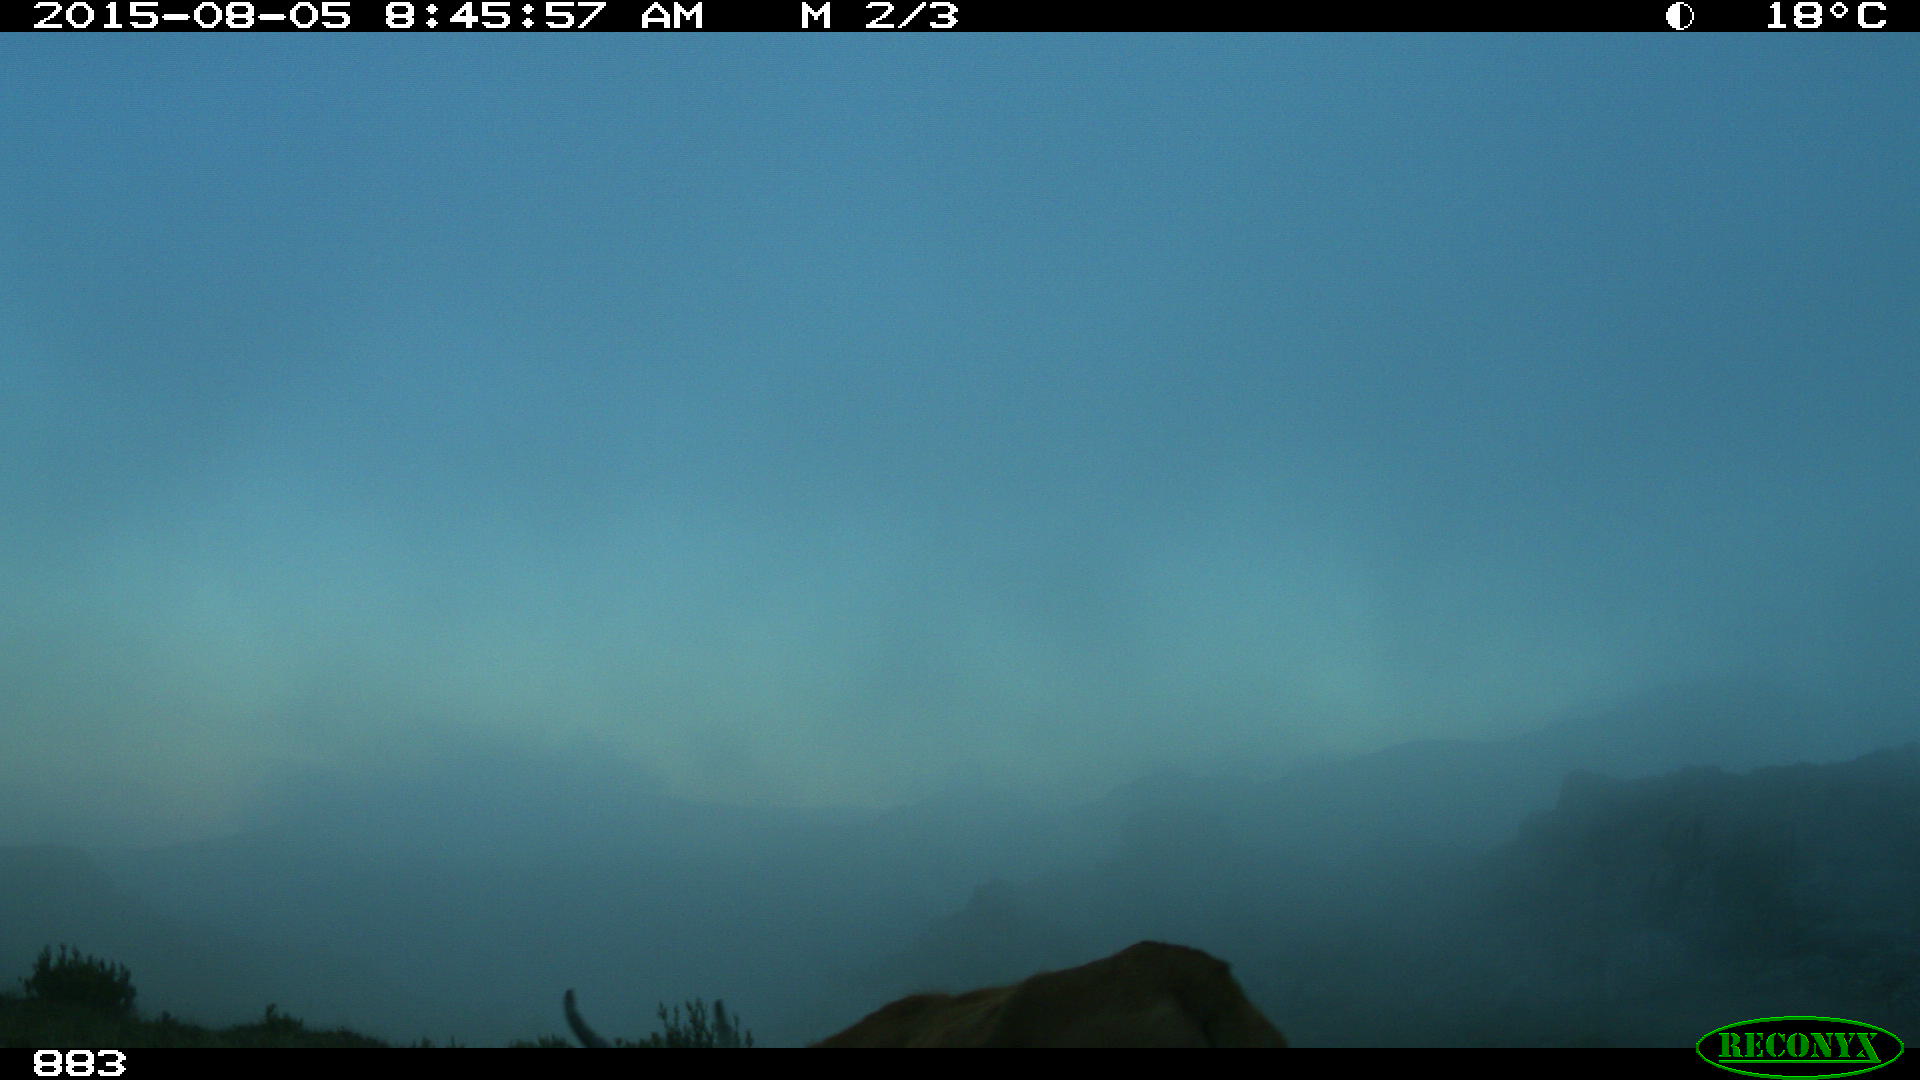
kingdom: Animalia
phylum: Chordata
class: Mammalia
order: Artiodactyla
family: Bovidae
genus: Bos
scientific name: Bos taurus
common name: Domesticated cattle
